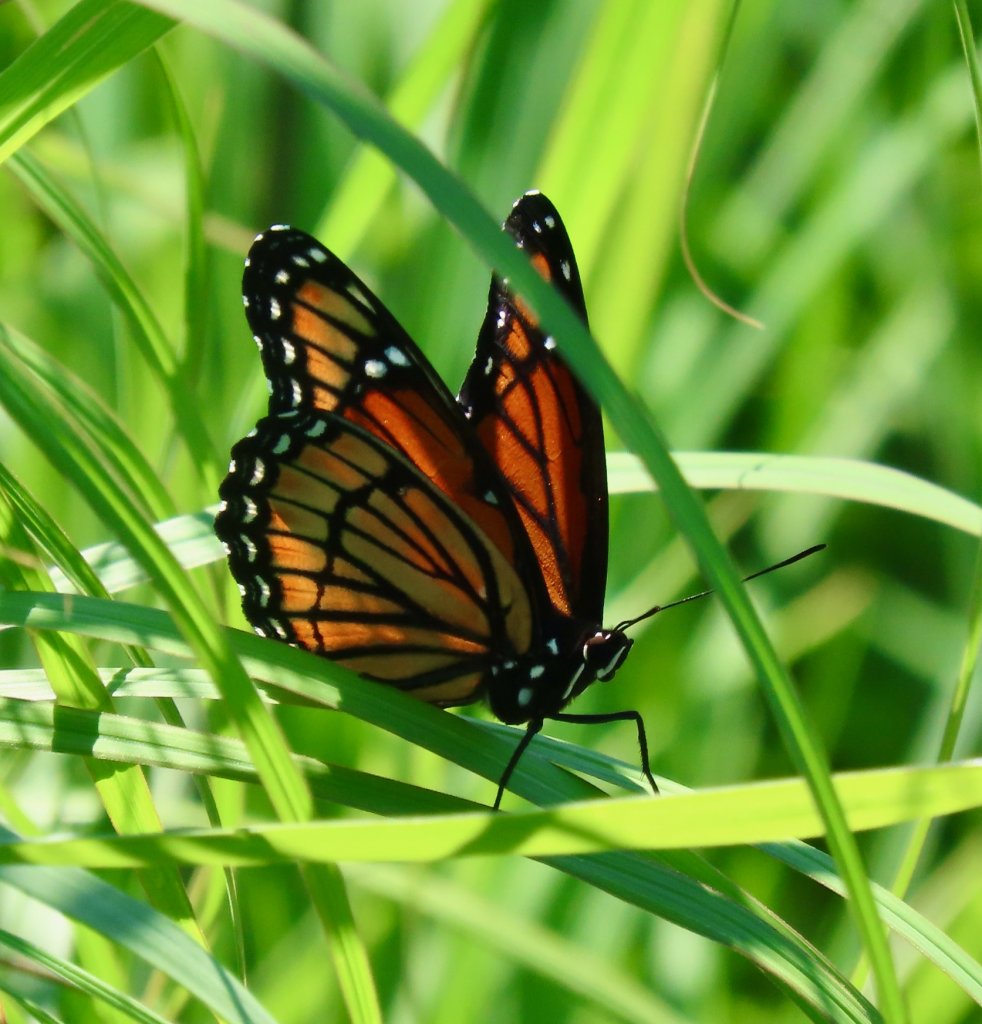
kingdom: Animalia
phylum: Arthropoda
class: Insecta
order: Lepidoptera
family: Nymphalidae
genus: Limenitis
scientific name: Limenitis archippus
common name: Viceroy
